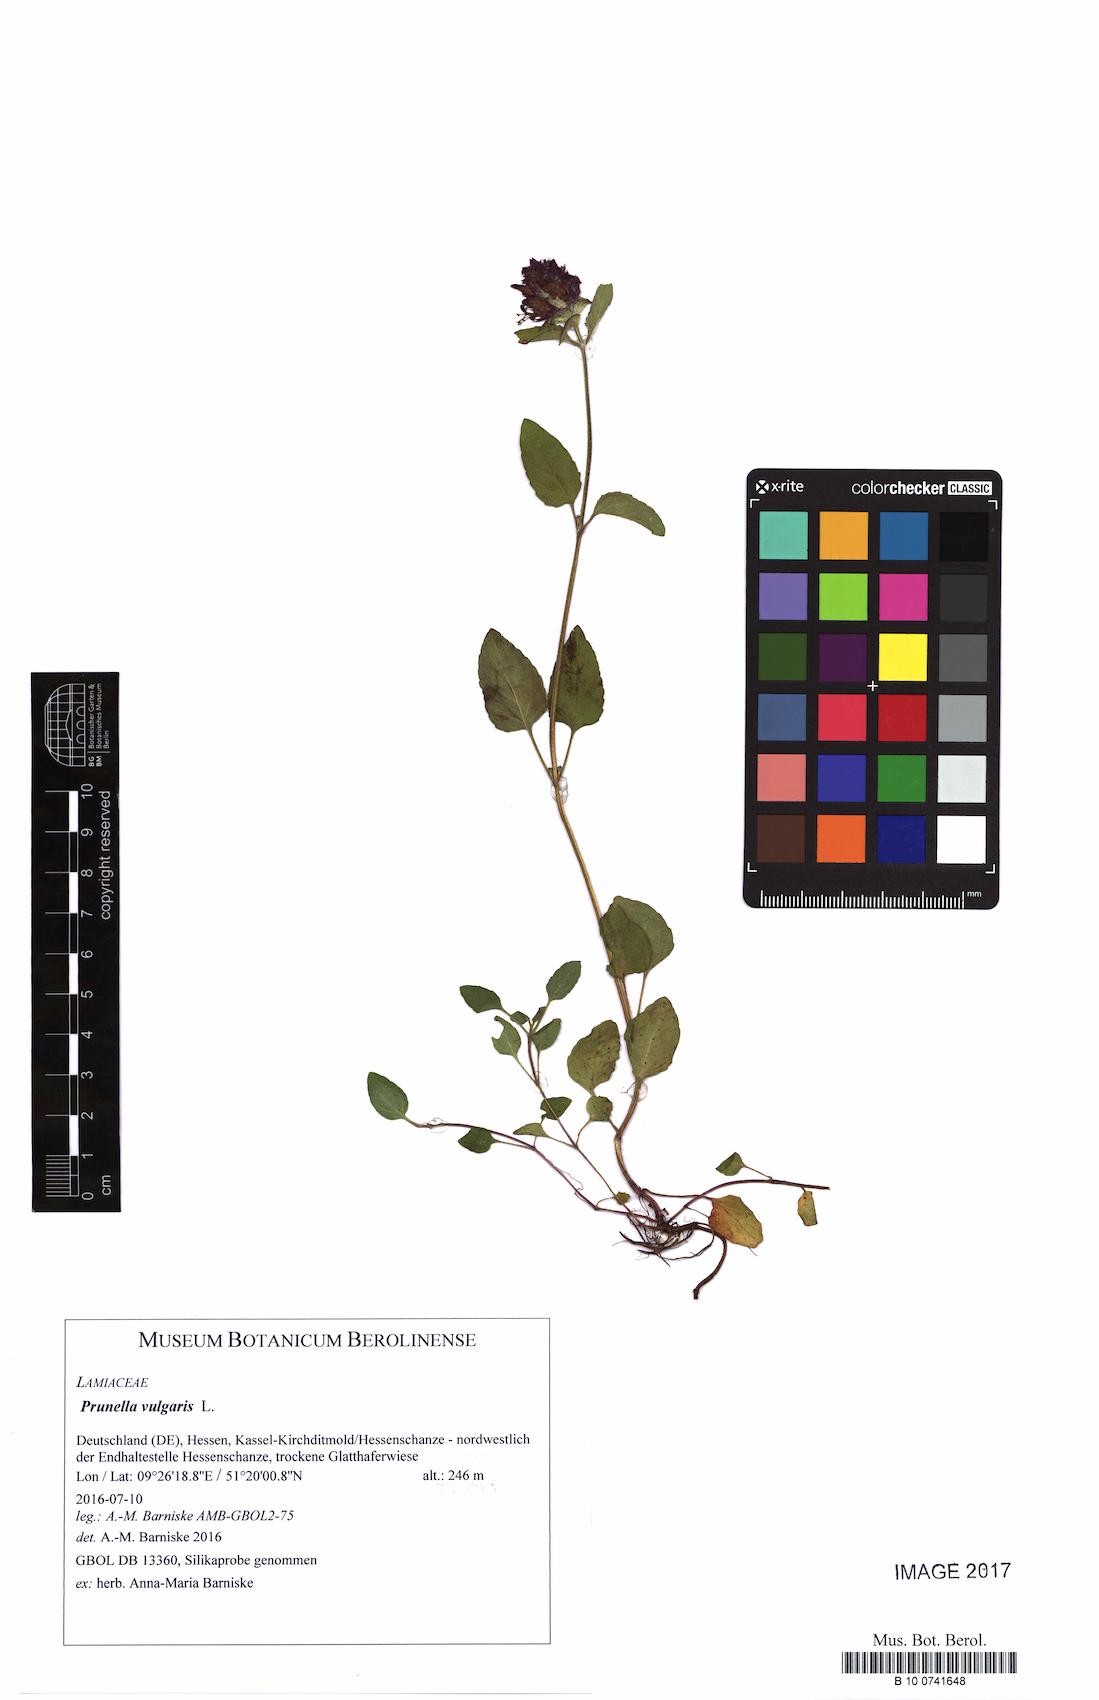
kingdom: Plantae
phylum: Tracheophyta
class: Magnoliopsida
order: Lamiales
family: Lamiaceae
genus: Prunella
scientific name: Prunella vulgaris
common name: Heal-all
